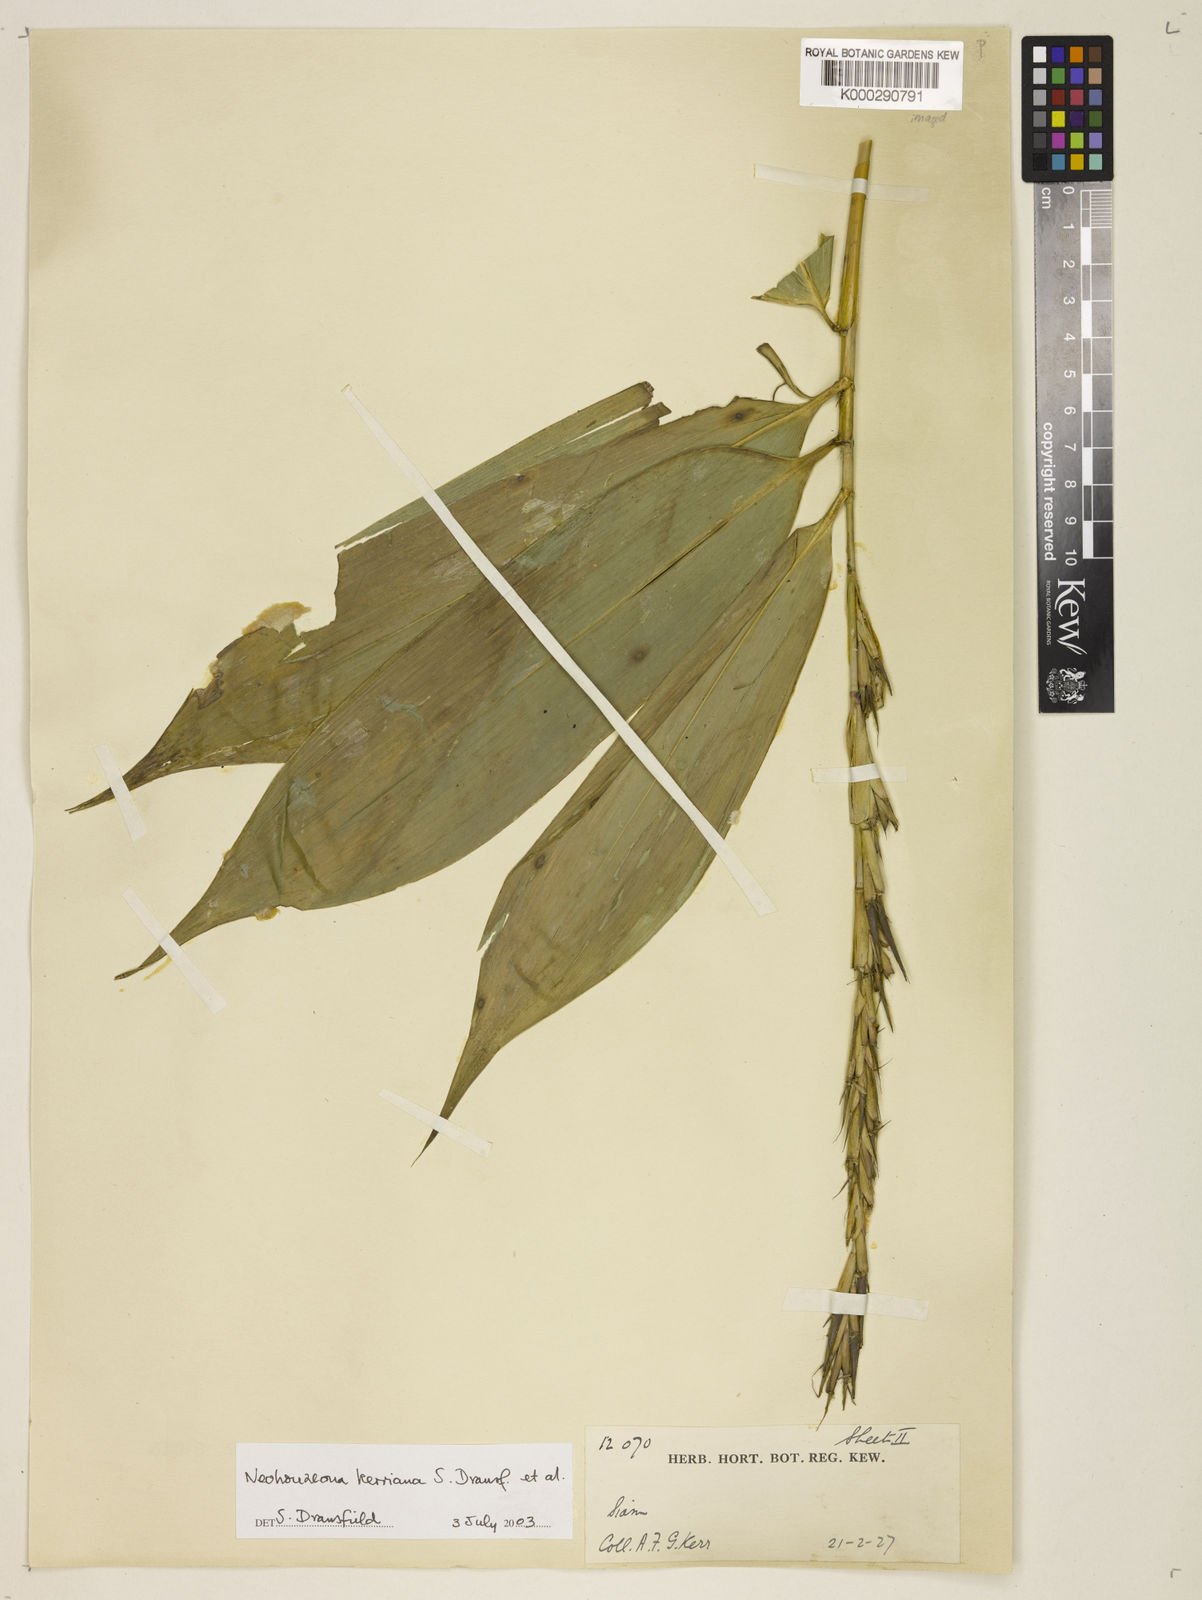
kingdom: Plantae
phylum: Tracheophyta
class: Liliopsida
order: Poales
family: Poaceae
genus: Schizostachyum
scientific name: Schizostachyum
